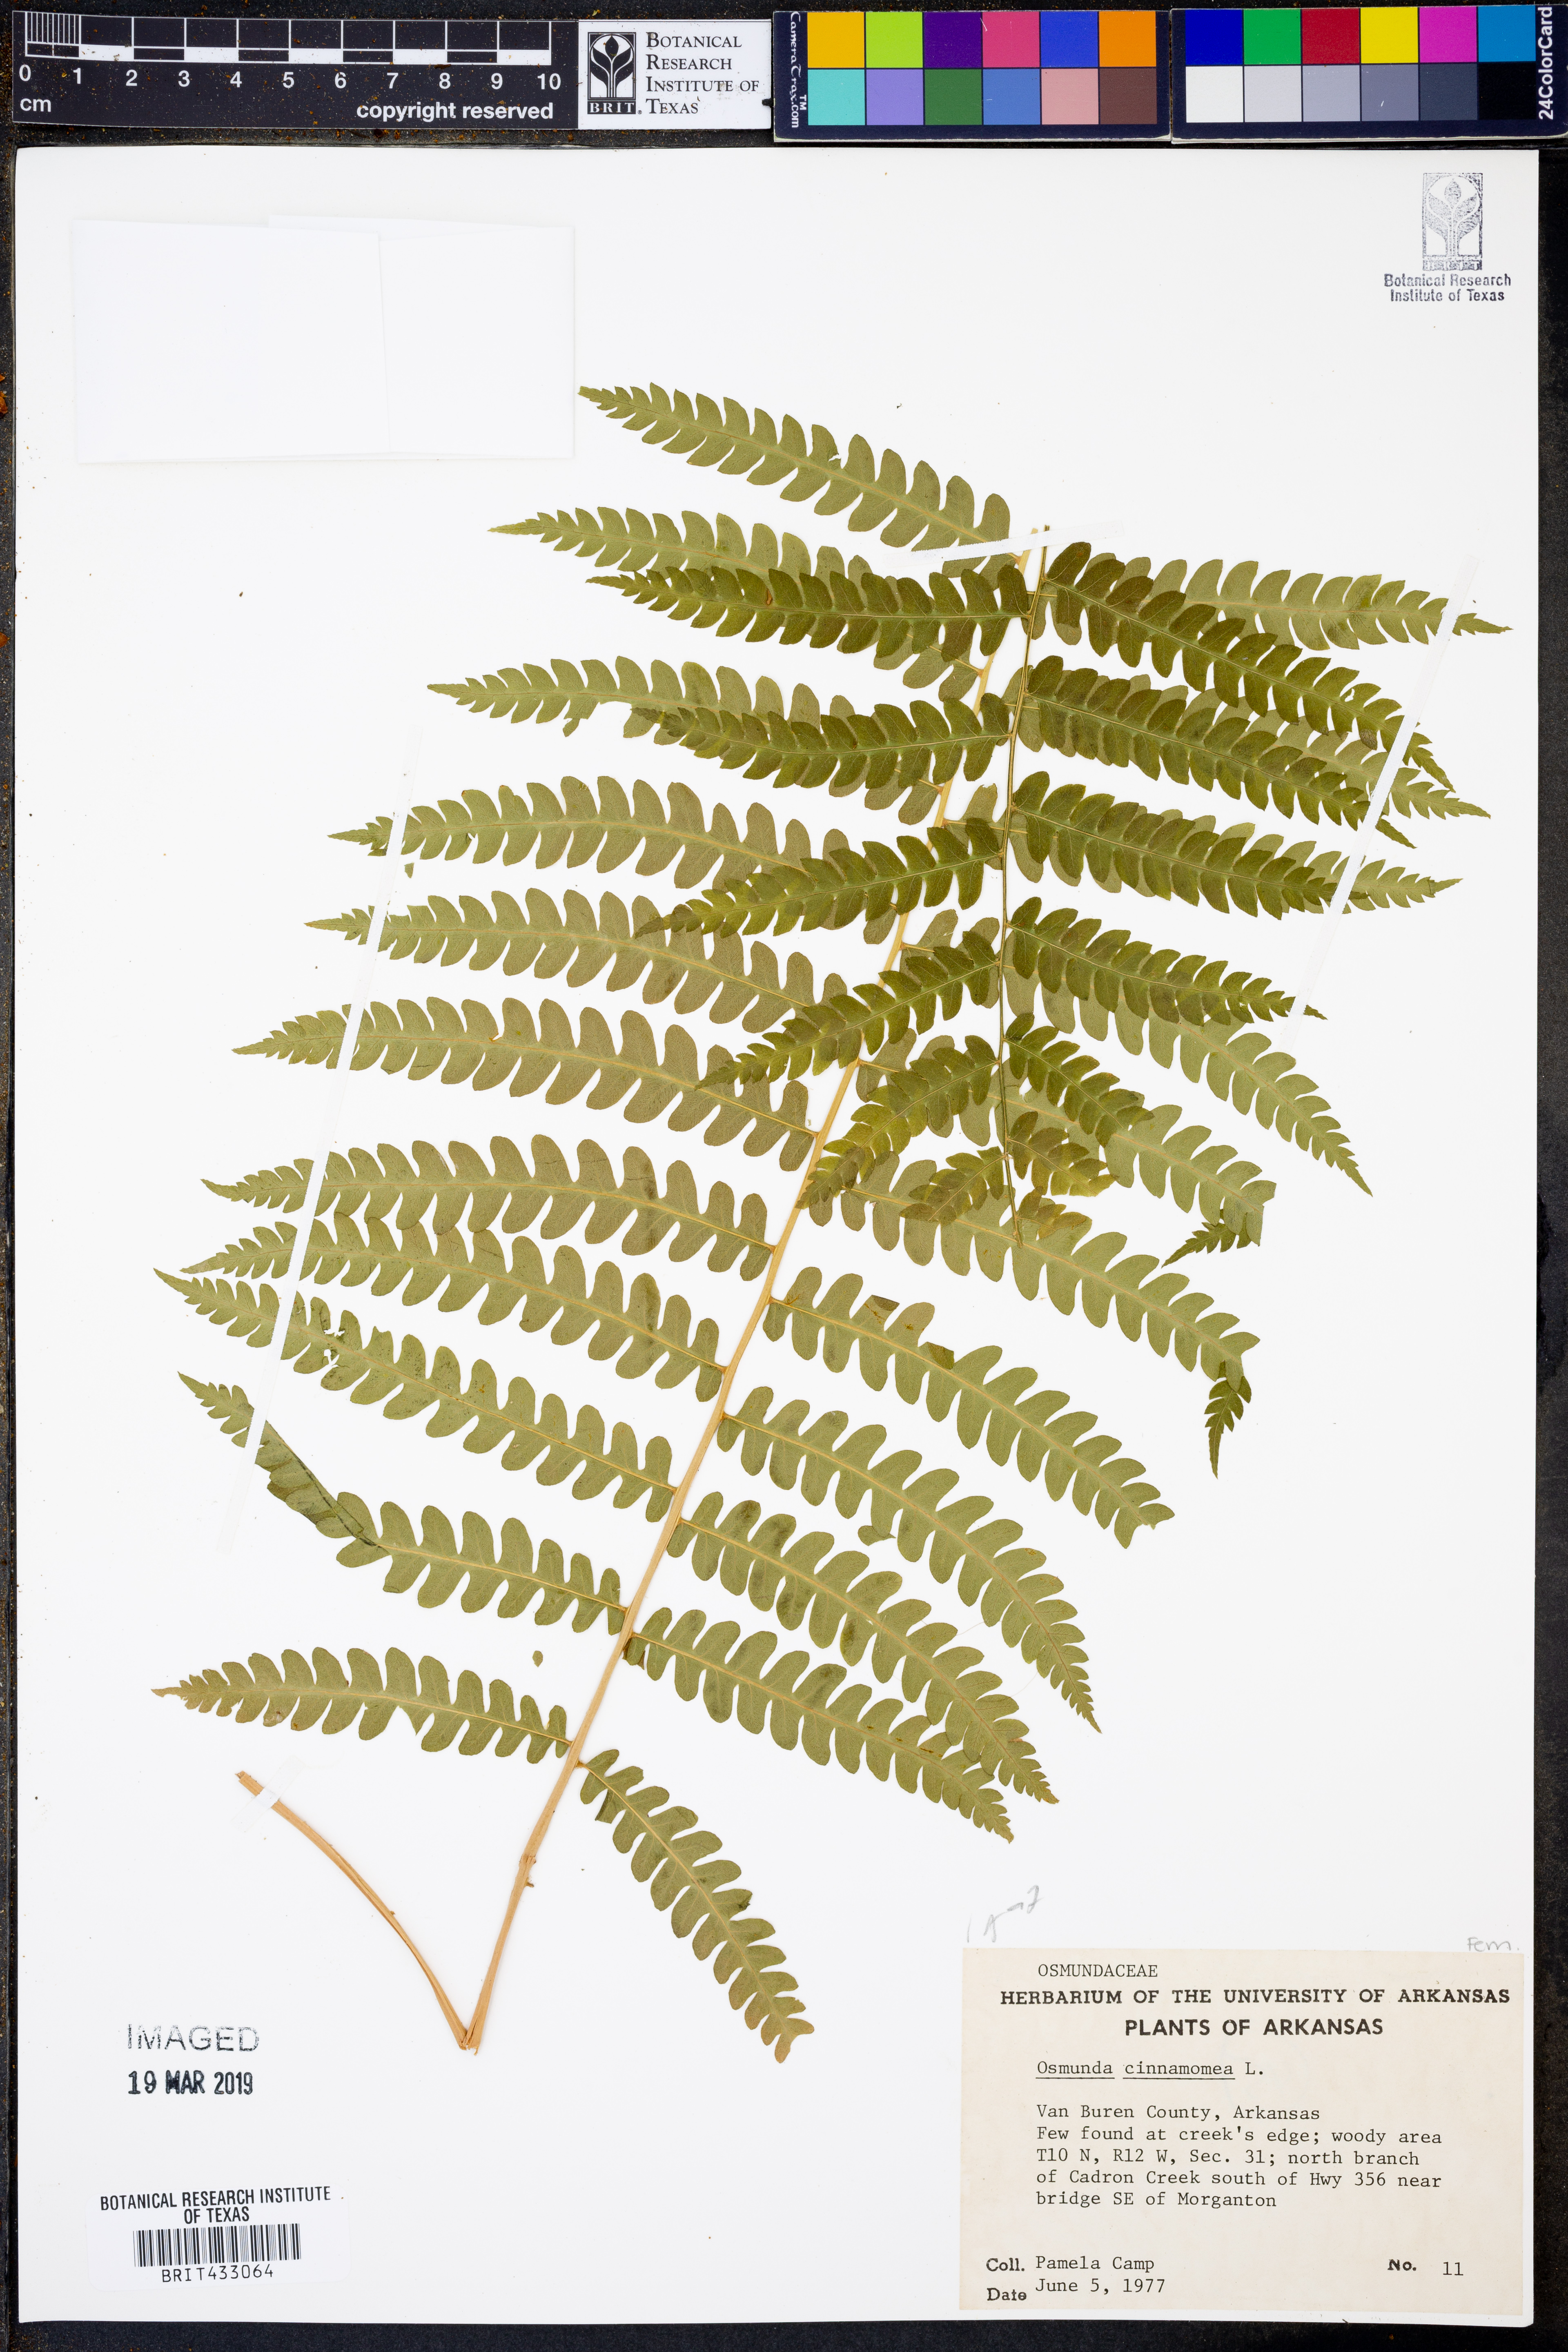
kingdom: Plantae
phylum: Tracheophyta
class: Polypodiopsida
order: Osmundales
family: Osmundaceae
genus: Osmundastrum
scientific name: Osmundastrum cinnamomeum
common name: Cinnamon fern
